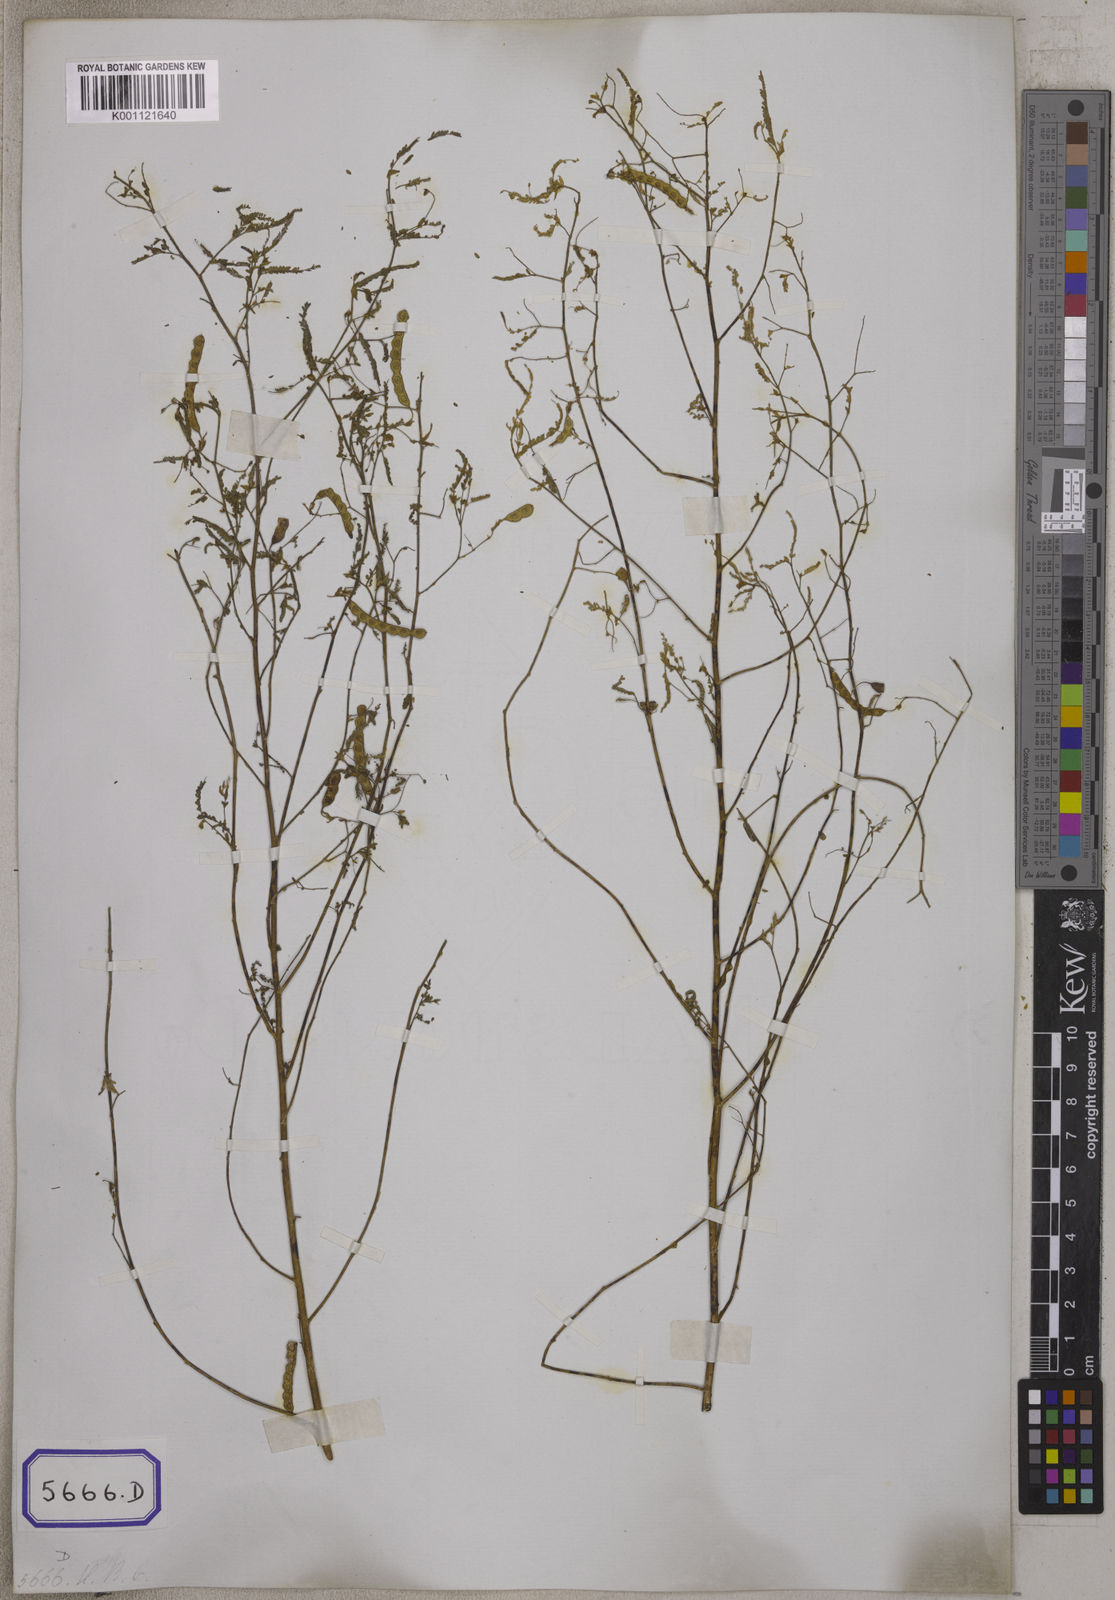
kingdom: Plantae
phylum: Tracheophyta
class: Magnoliopsida
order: Fabales
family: Fabaceae
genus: Aeschynomene
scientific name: Aeschynomene aspera
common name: Pith plant
